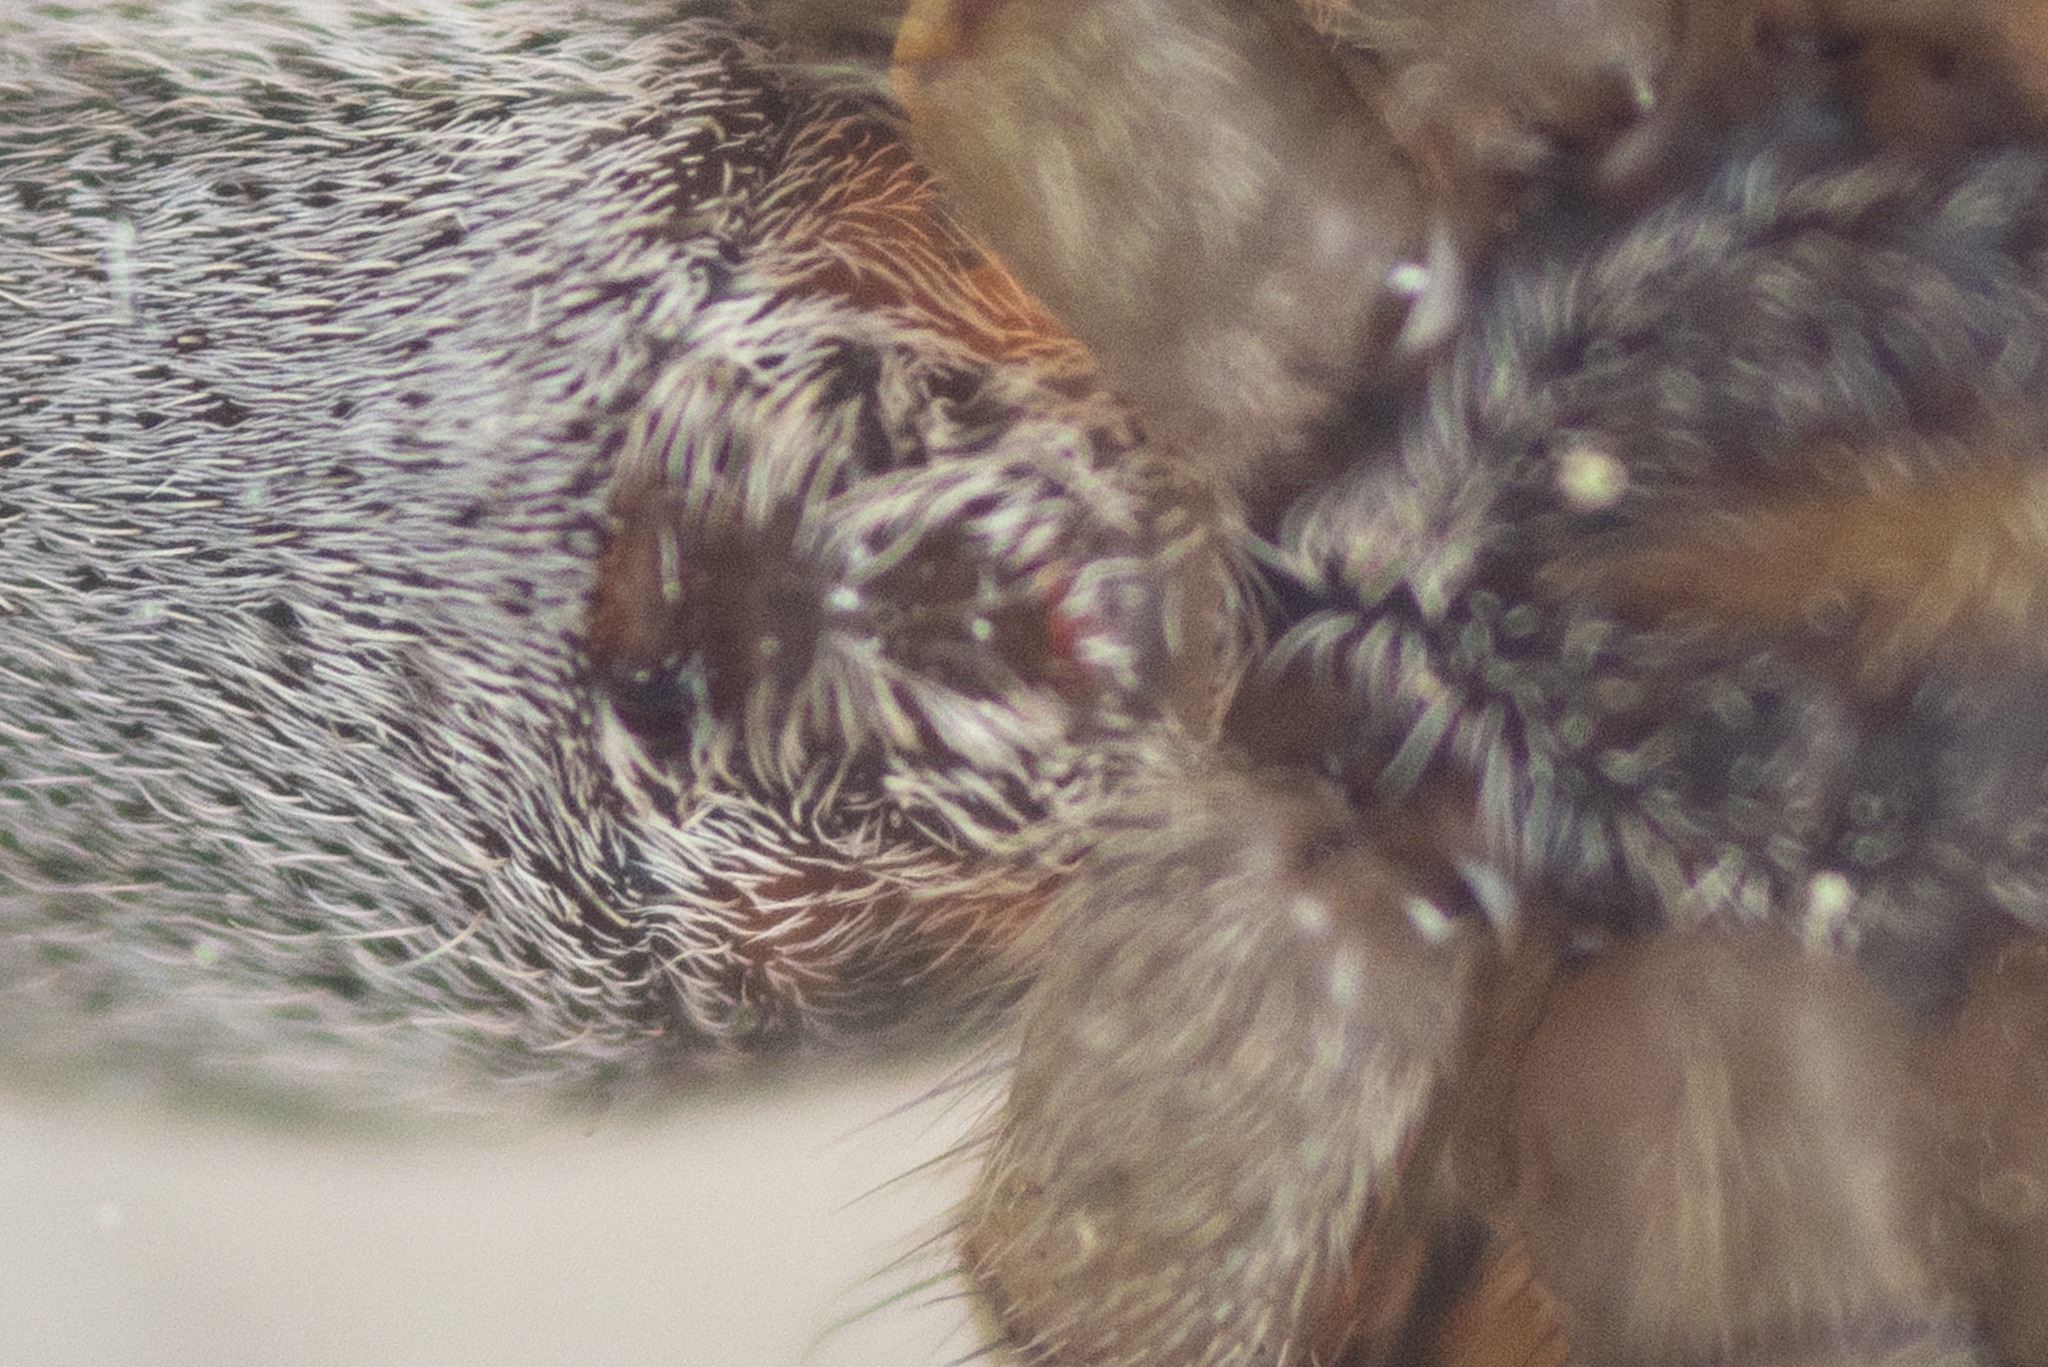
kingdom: Animalia
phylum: Arthropoda
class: Arachnida
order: Araneae
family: Lycosidae
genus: Pardosa
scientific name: Pardosa nigriceps
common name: Hedejæger
